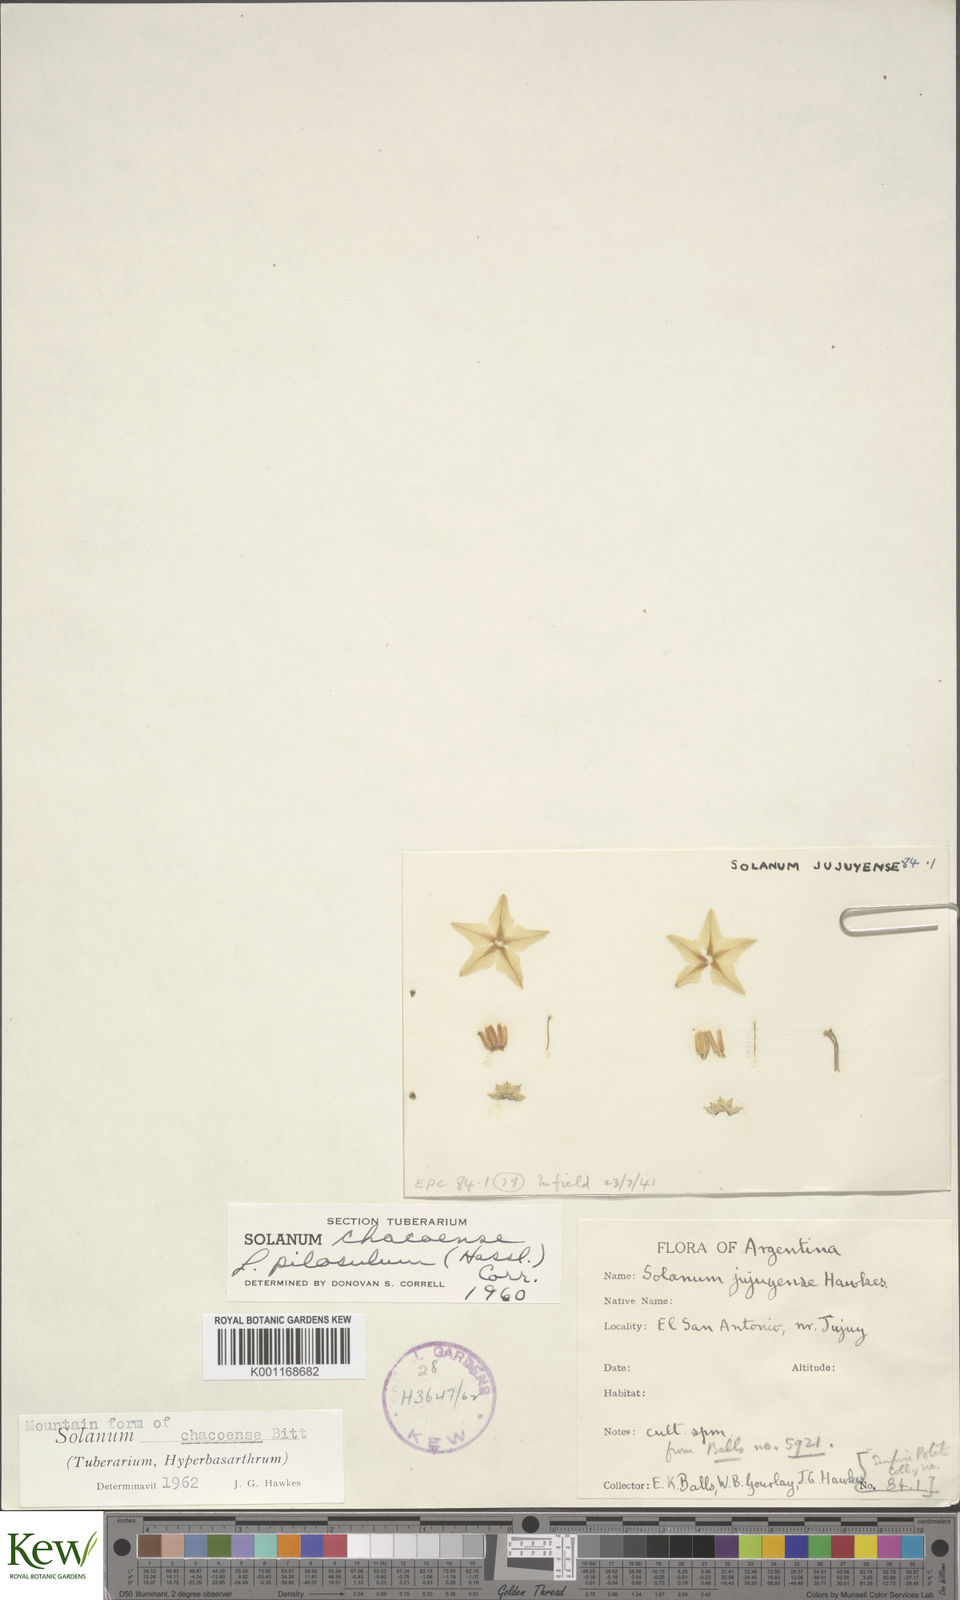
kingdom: Plantae
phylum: Tracheophyta
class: Magnoliopsida
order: Solanales
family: Solanaceae
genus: Solanum
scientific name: Solanum chacoense
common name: Chaco potato
